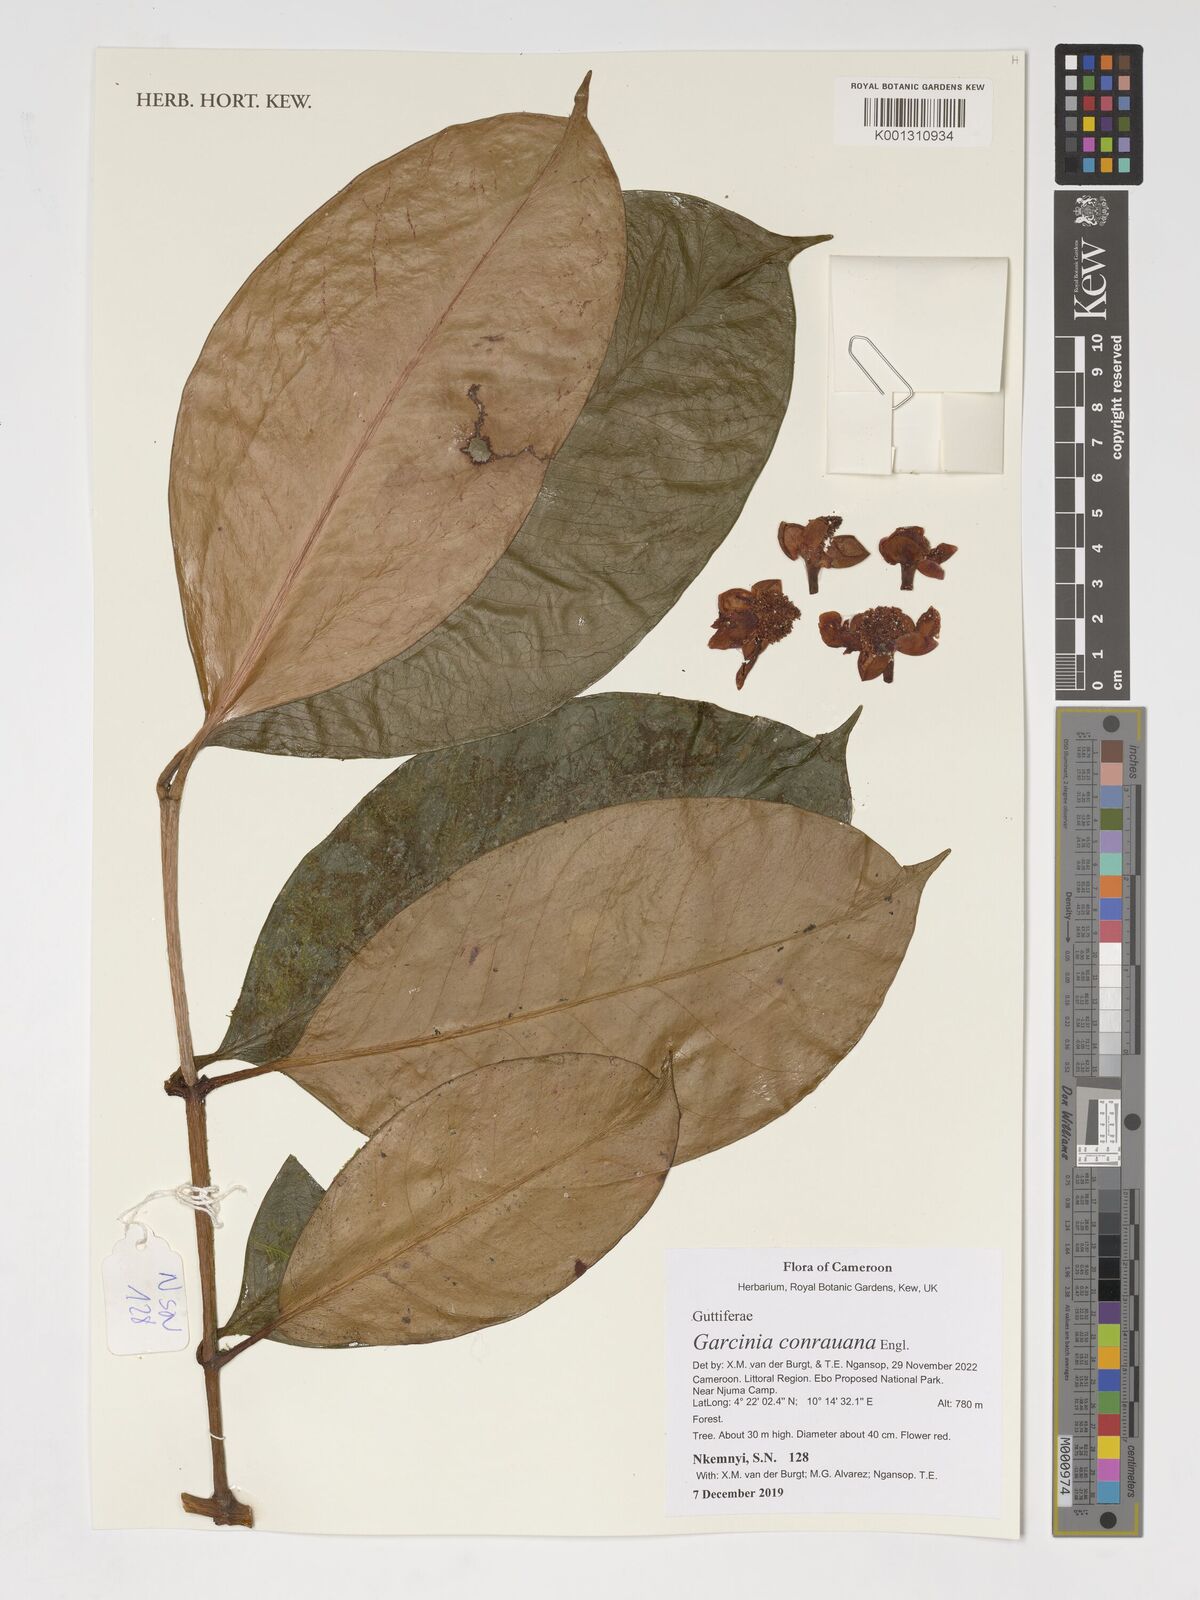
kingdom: Plantae
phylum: Tracheophyta
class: Magnoliopsida
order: Malpighiales
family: Clusiaceae
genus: Garcinia
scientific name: Garcinia conrauana
